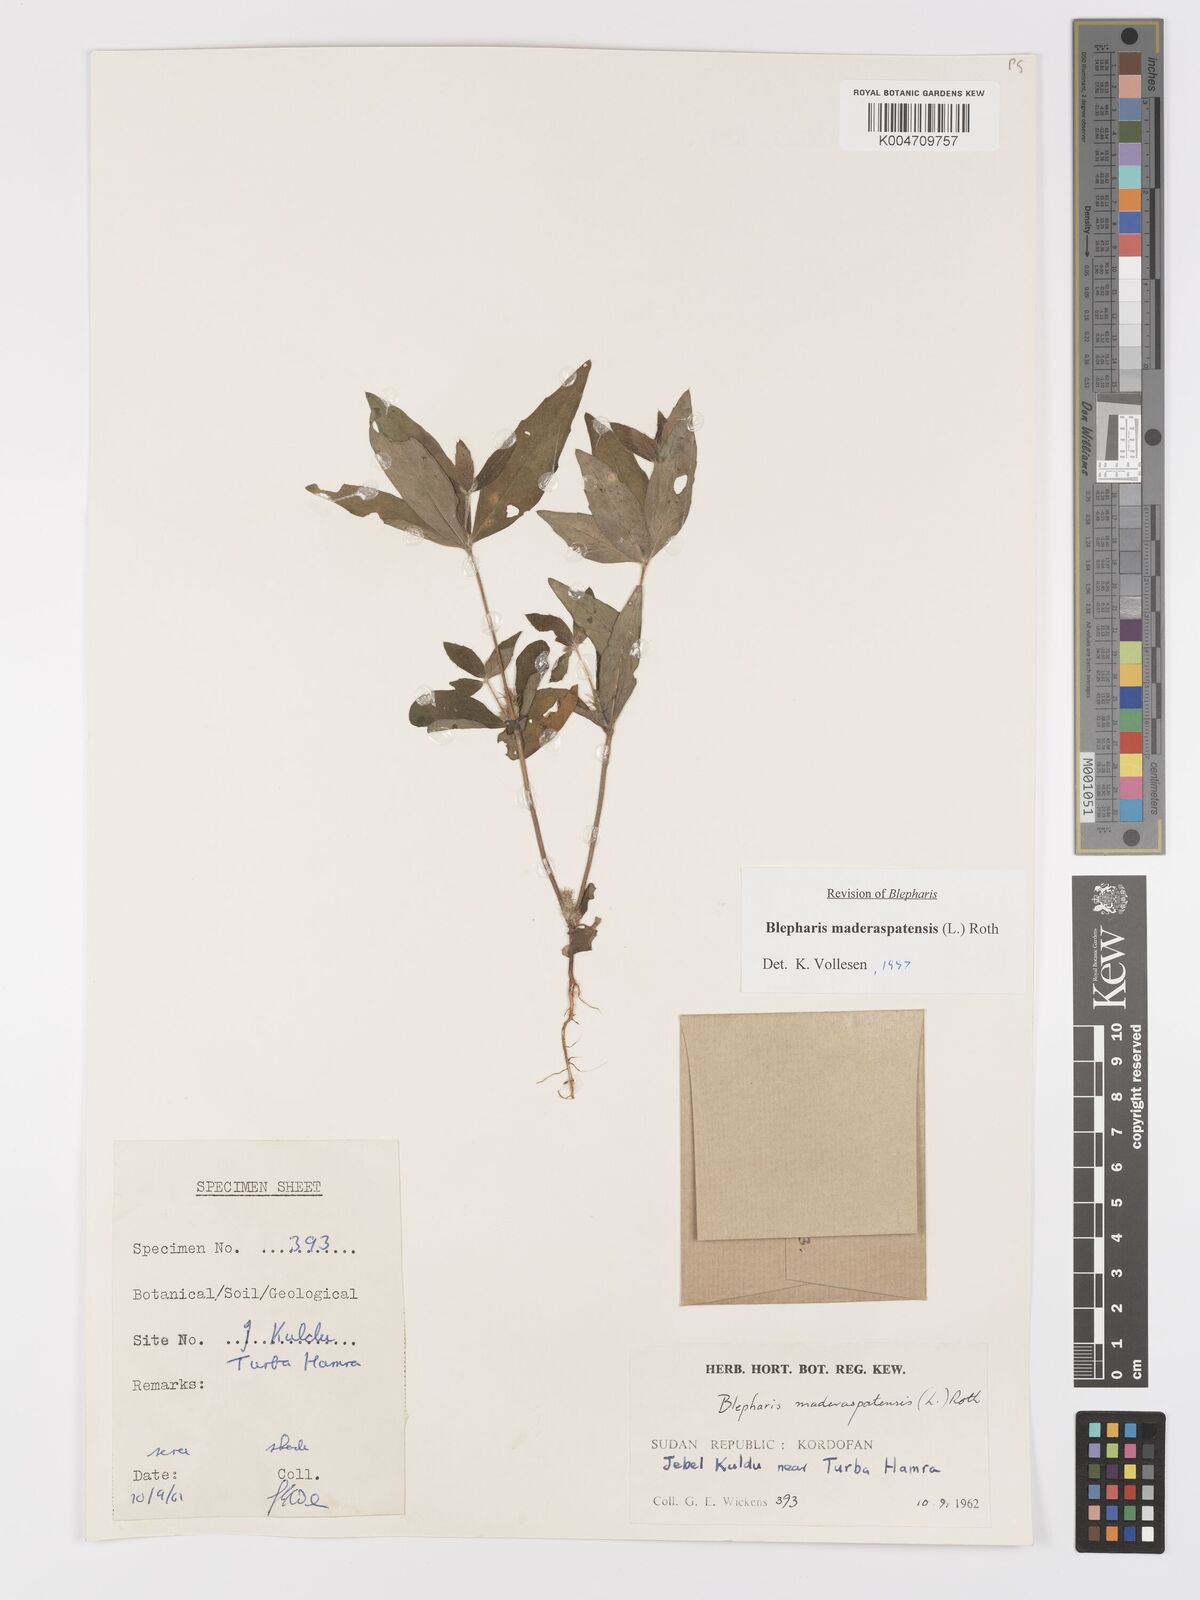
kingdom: Plantae
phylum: Tracheophyta
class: Magnoliopsida
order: Lamiales
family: Acanthaceae
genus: Blepharis
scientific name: Blepharis maderaspatensis
